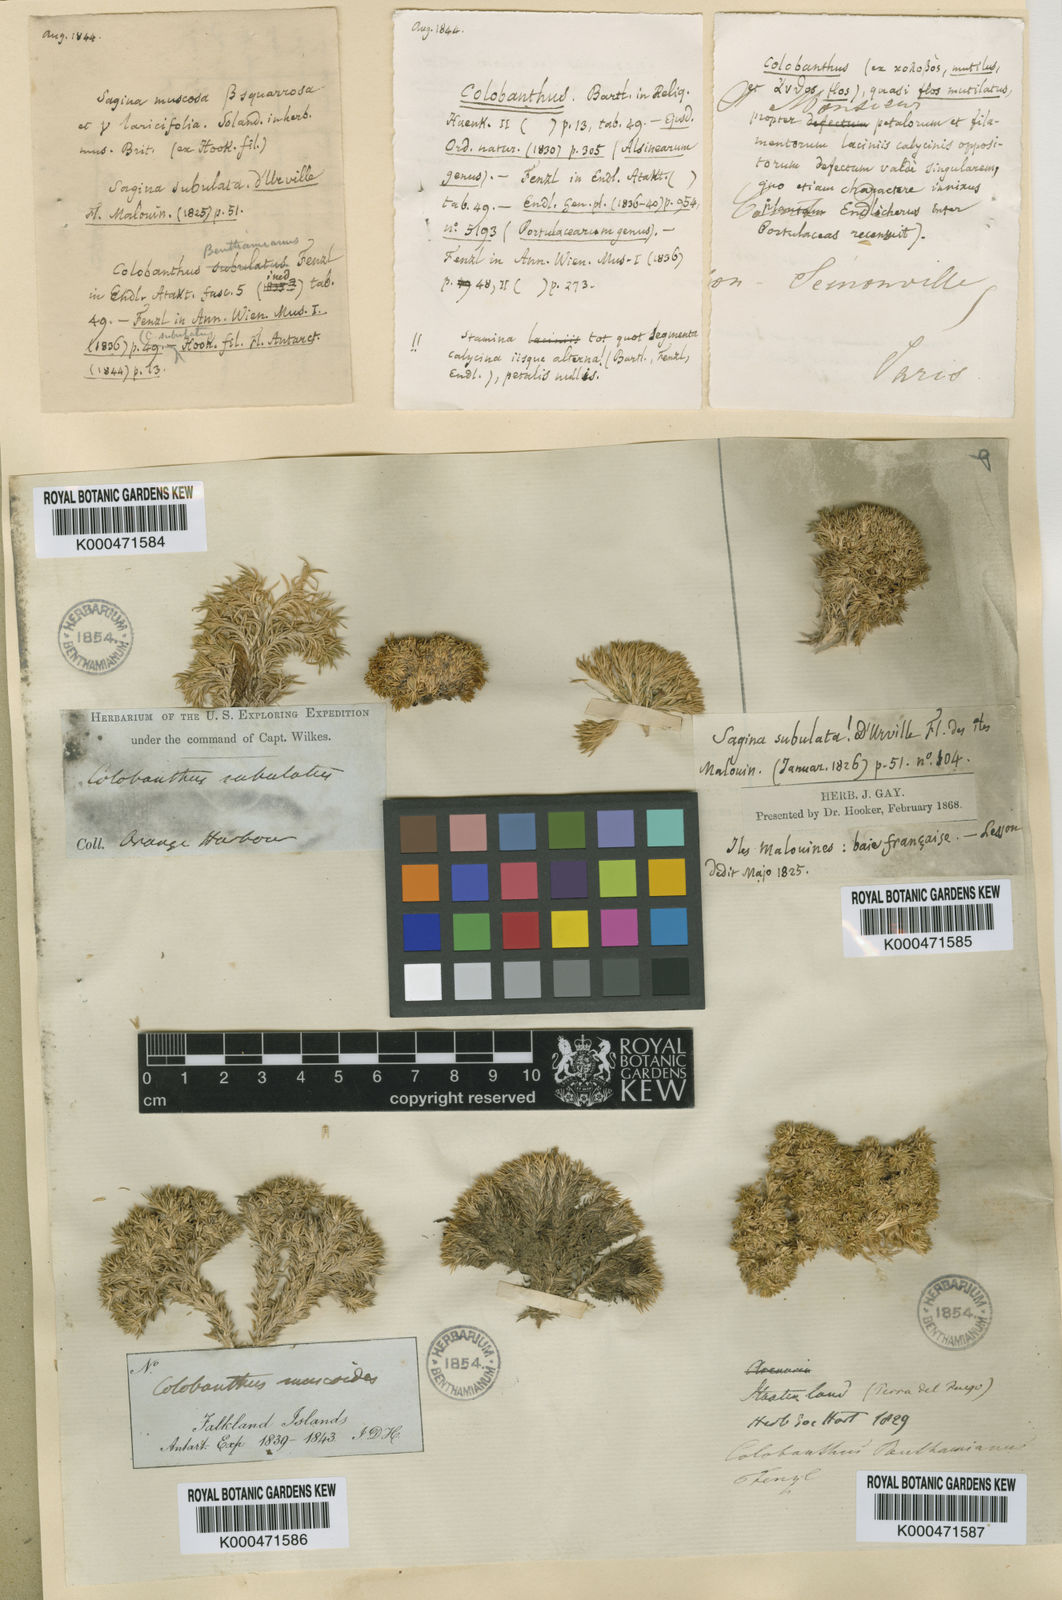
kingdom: Plantae
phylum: Tracheophyta
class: Magnoliopsida
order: Caryophyllales
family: Caryophyllaceae
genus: Colobanthus
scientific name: Colobanthus
